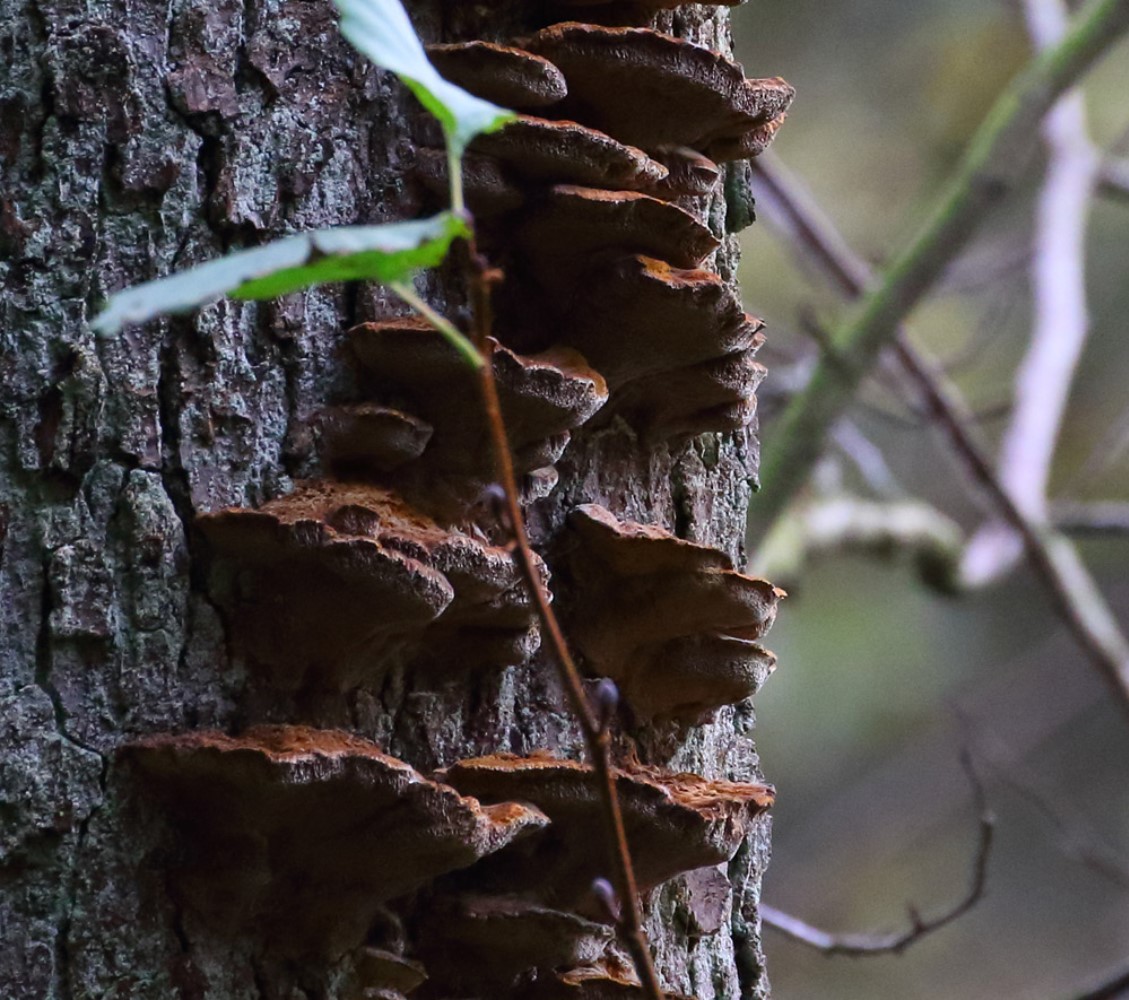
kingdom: Fungi
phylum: Basidiomycota
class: Agaricomycetes
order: Hymenochaetales
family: Hymenochaetaceae
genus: Xanthoporia
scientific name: Xanthoporia radiata
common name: elle-spejlporesvamp
